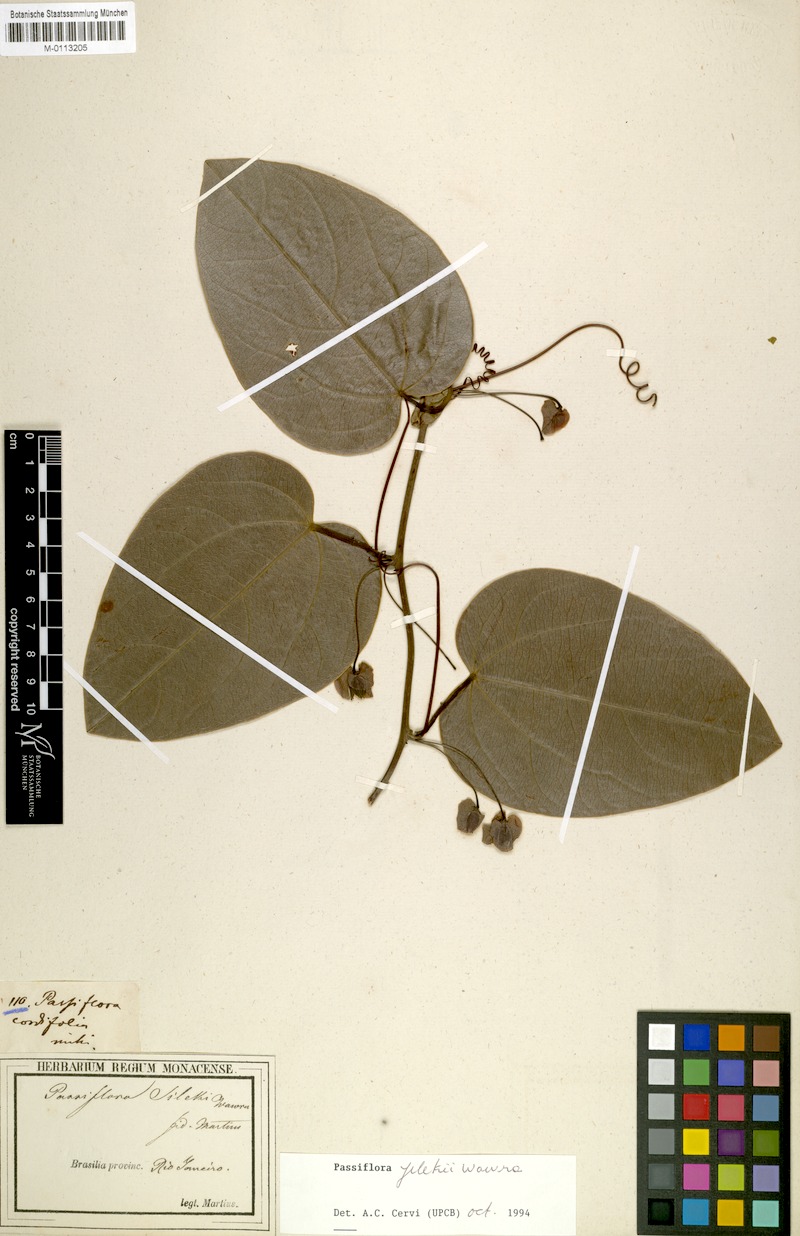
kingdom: Plantae
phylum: Tracheophyta
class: Magnoliopsida
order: Malpighiales
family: Passifloraceae
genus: Passiflora
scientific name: Passiflora mediterranea
